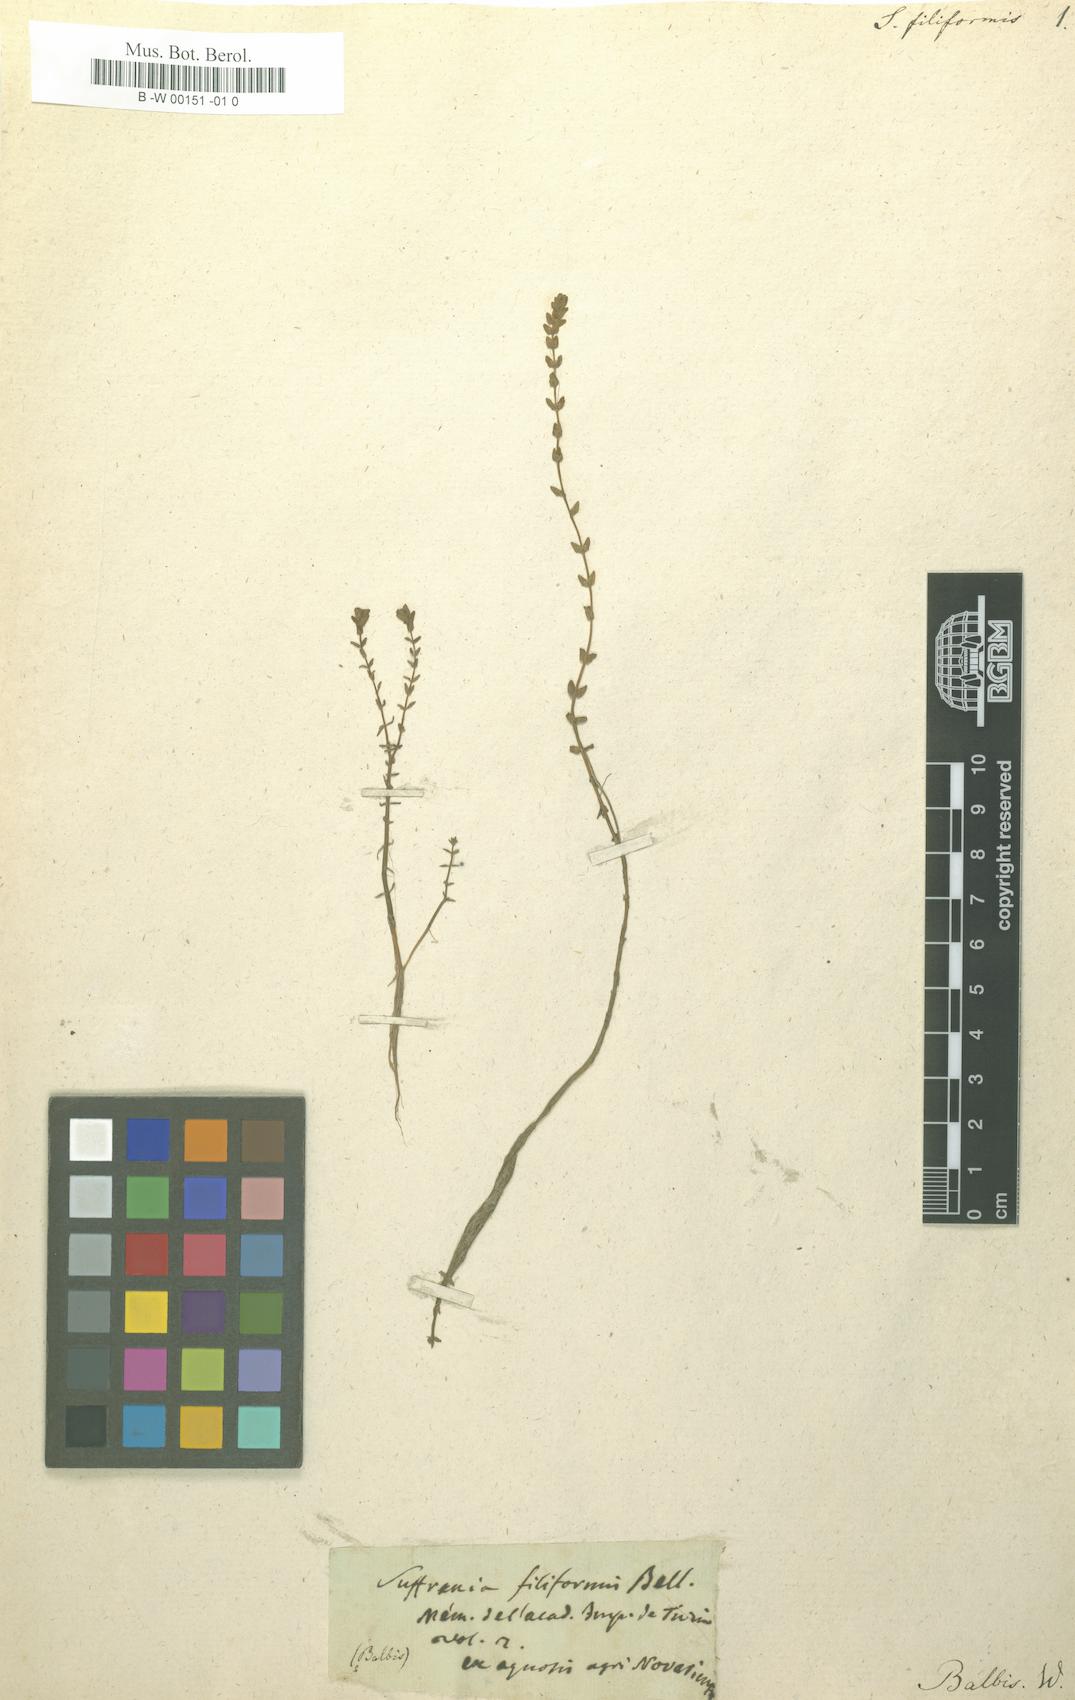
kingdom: Plantae
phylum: Tracheophyta
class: Magnoliopsida
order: Myrtales
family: Lythraceae
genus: Rotala
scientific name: Rotala filiformis
